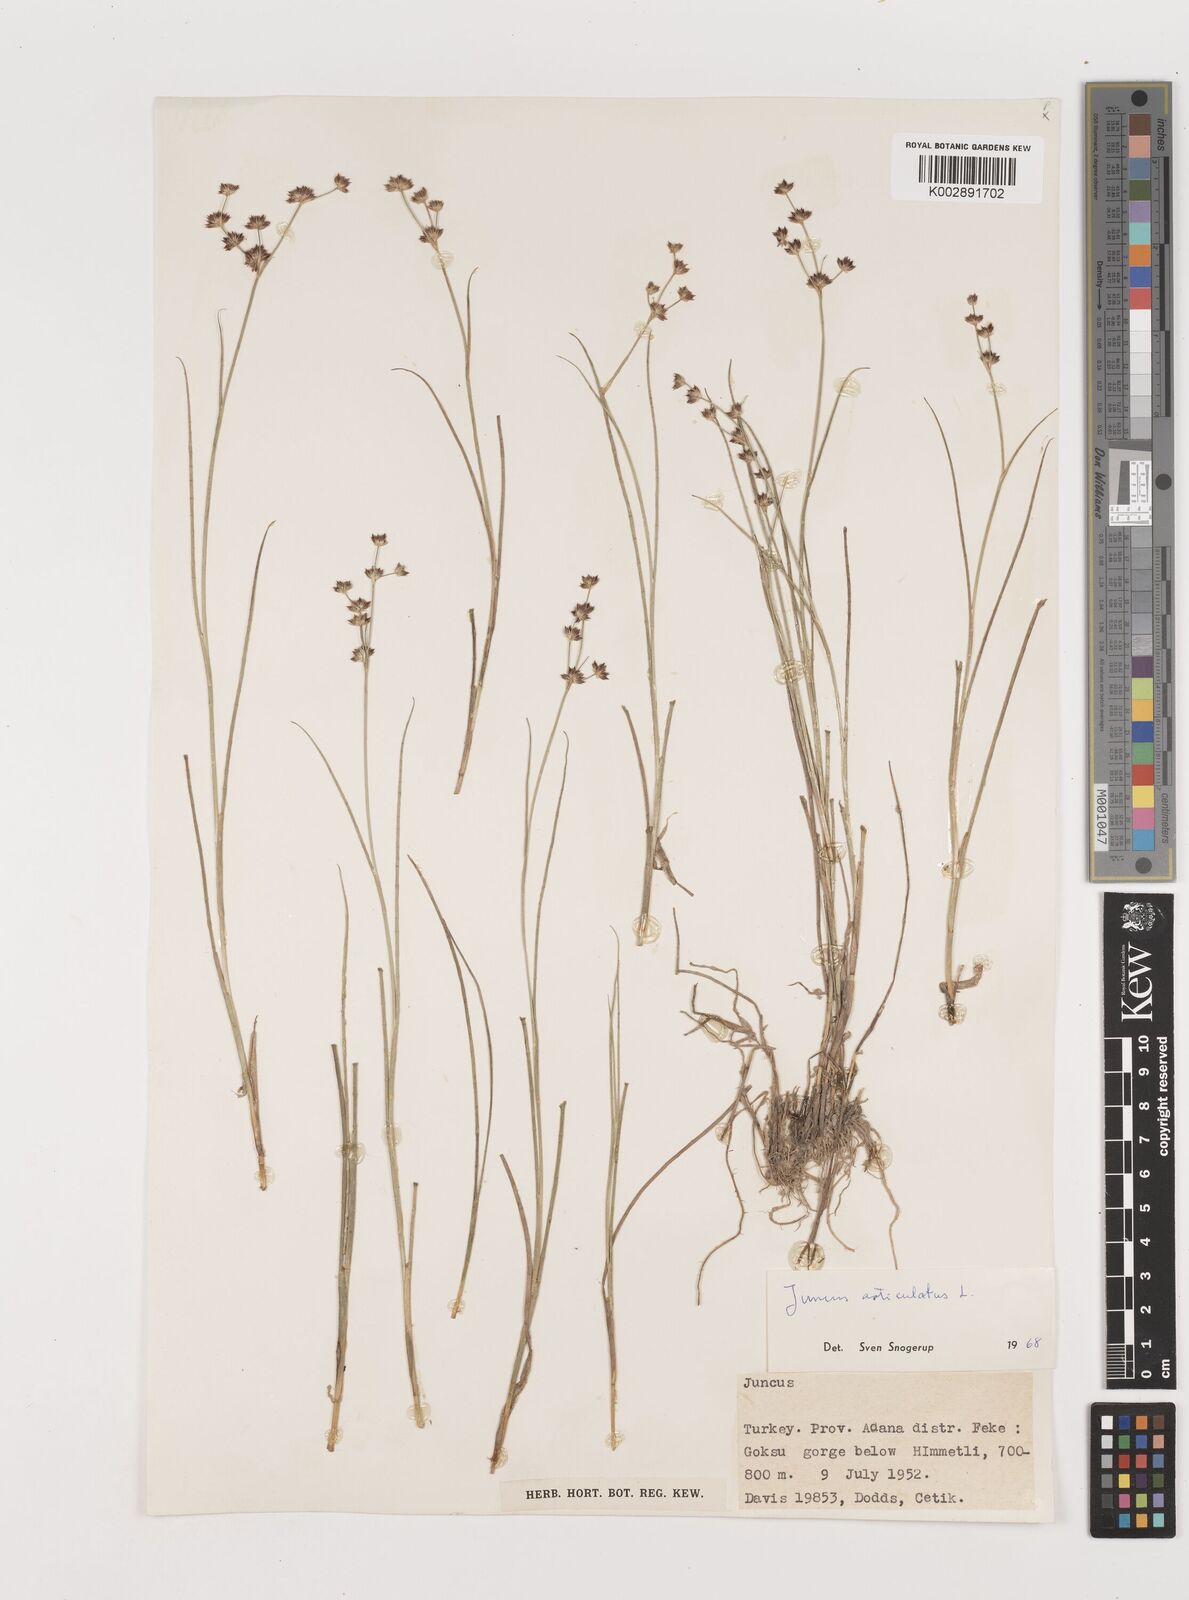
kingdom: Plantae
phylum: Tracheophyta
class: Liliopsida
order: Poales
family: Juncaceae
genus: Juncus
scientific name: Juncus articulatus
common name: Jointed rush
